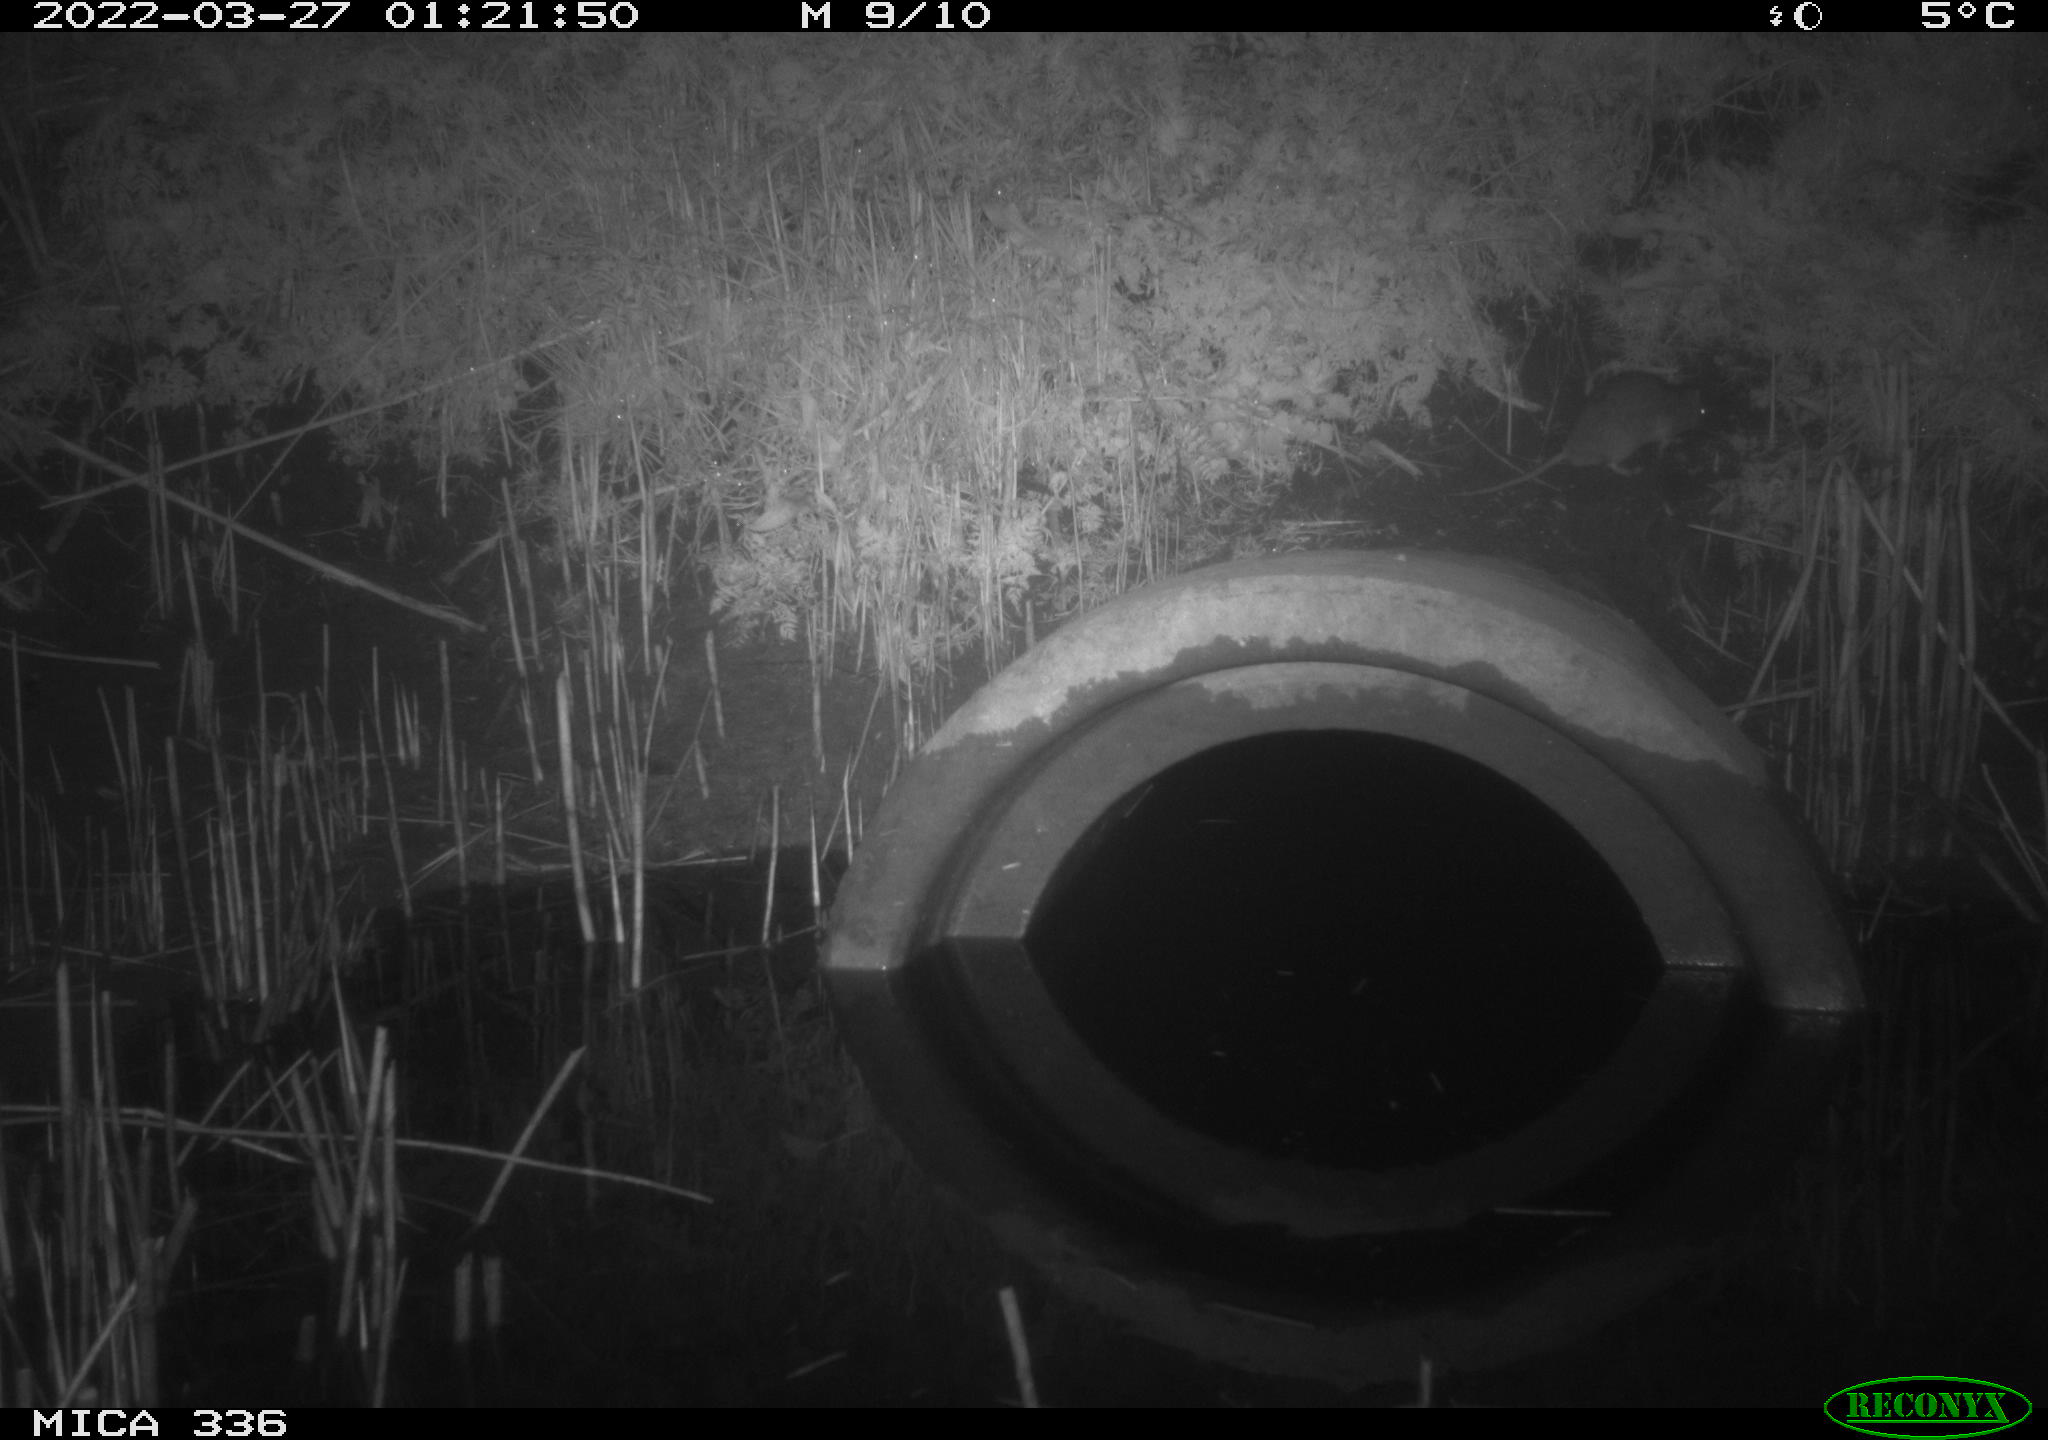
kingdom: Animalia
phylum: Chordata
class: Mammalia
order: Rodentia
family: Muridae
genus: Rattus
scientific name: Rattus norvegicus
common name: Brown rat
